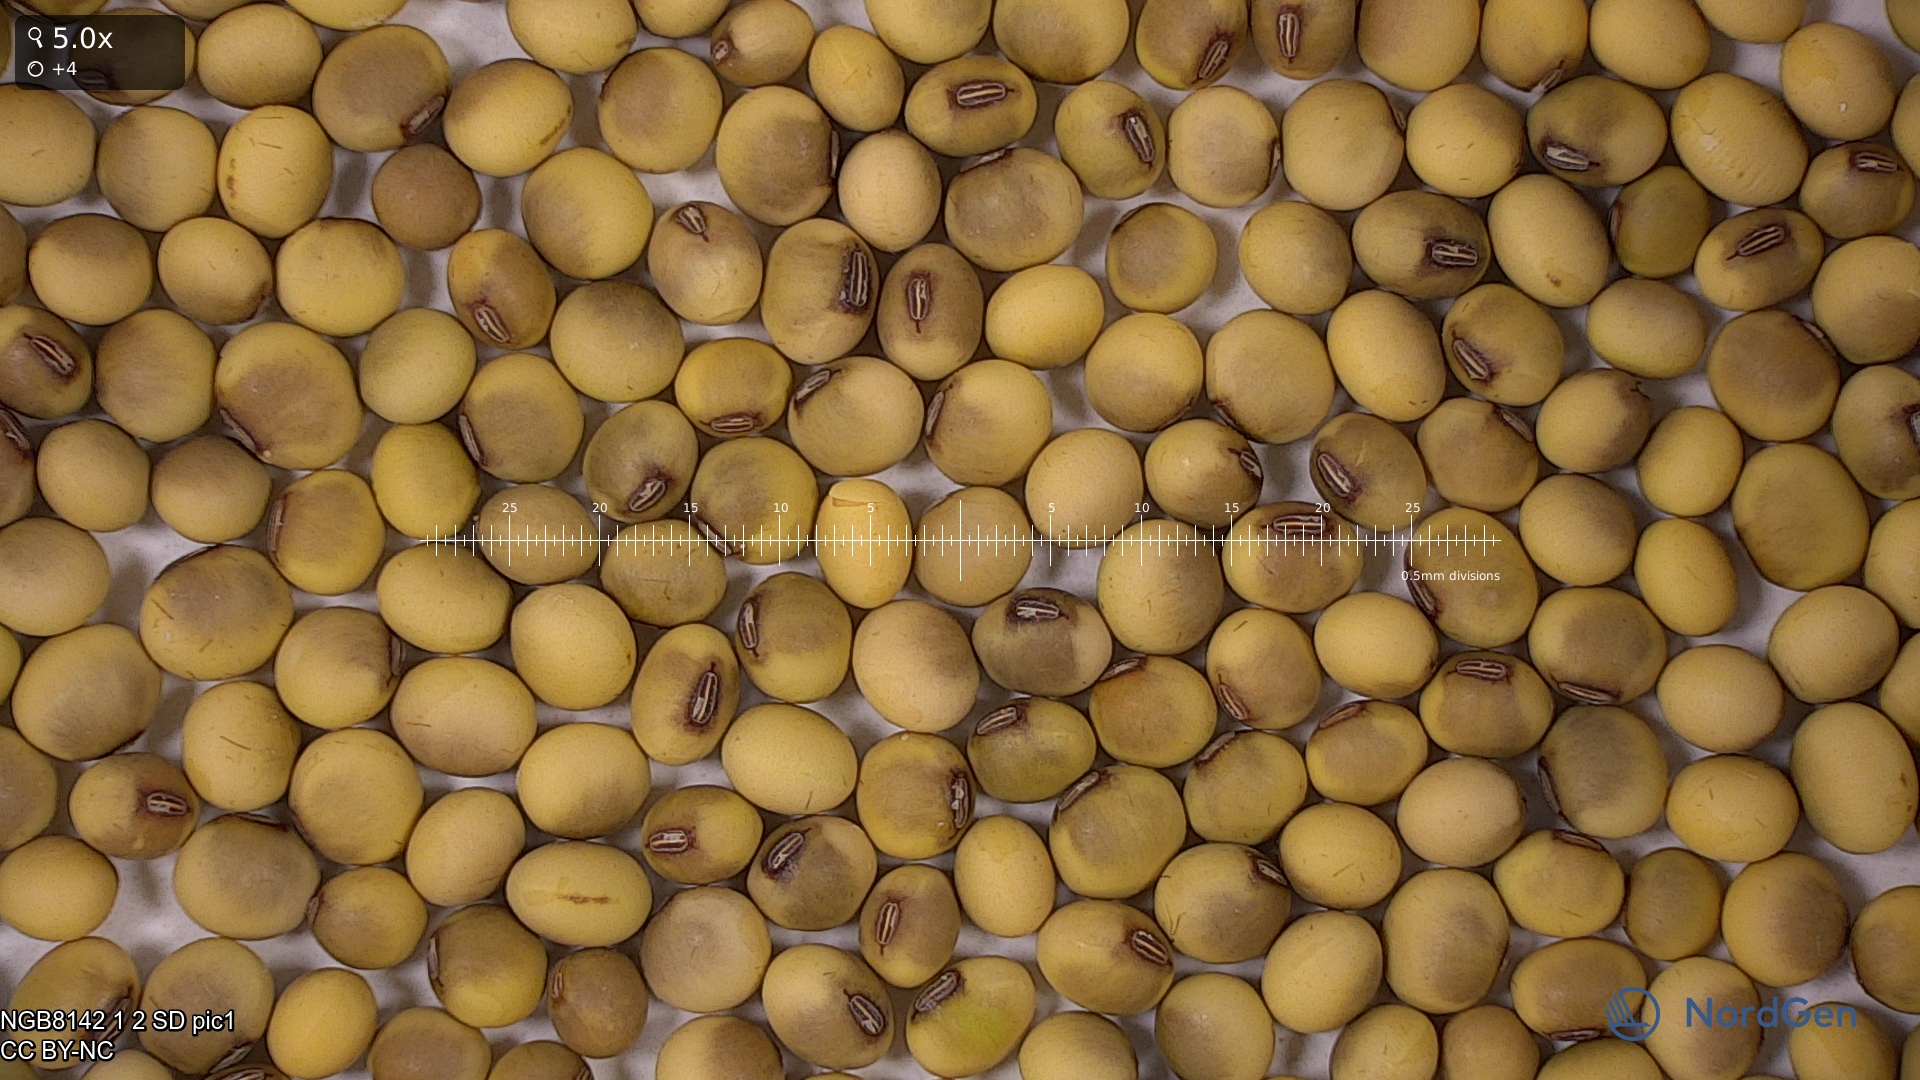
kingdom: Plantae
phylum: Tracheophyta
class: Magnoliopsida
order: Fabales
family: Fabaceae
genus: Glycine
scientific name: Glycine max
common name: Soya-bean
